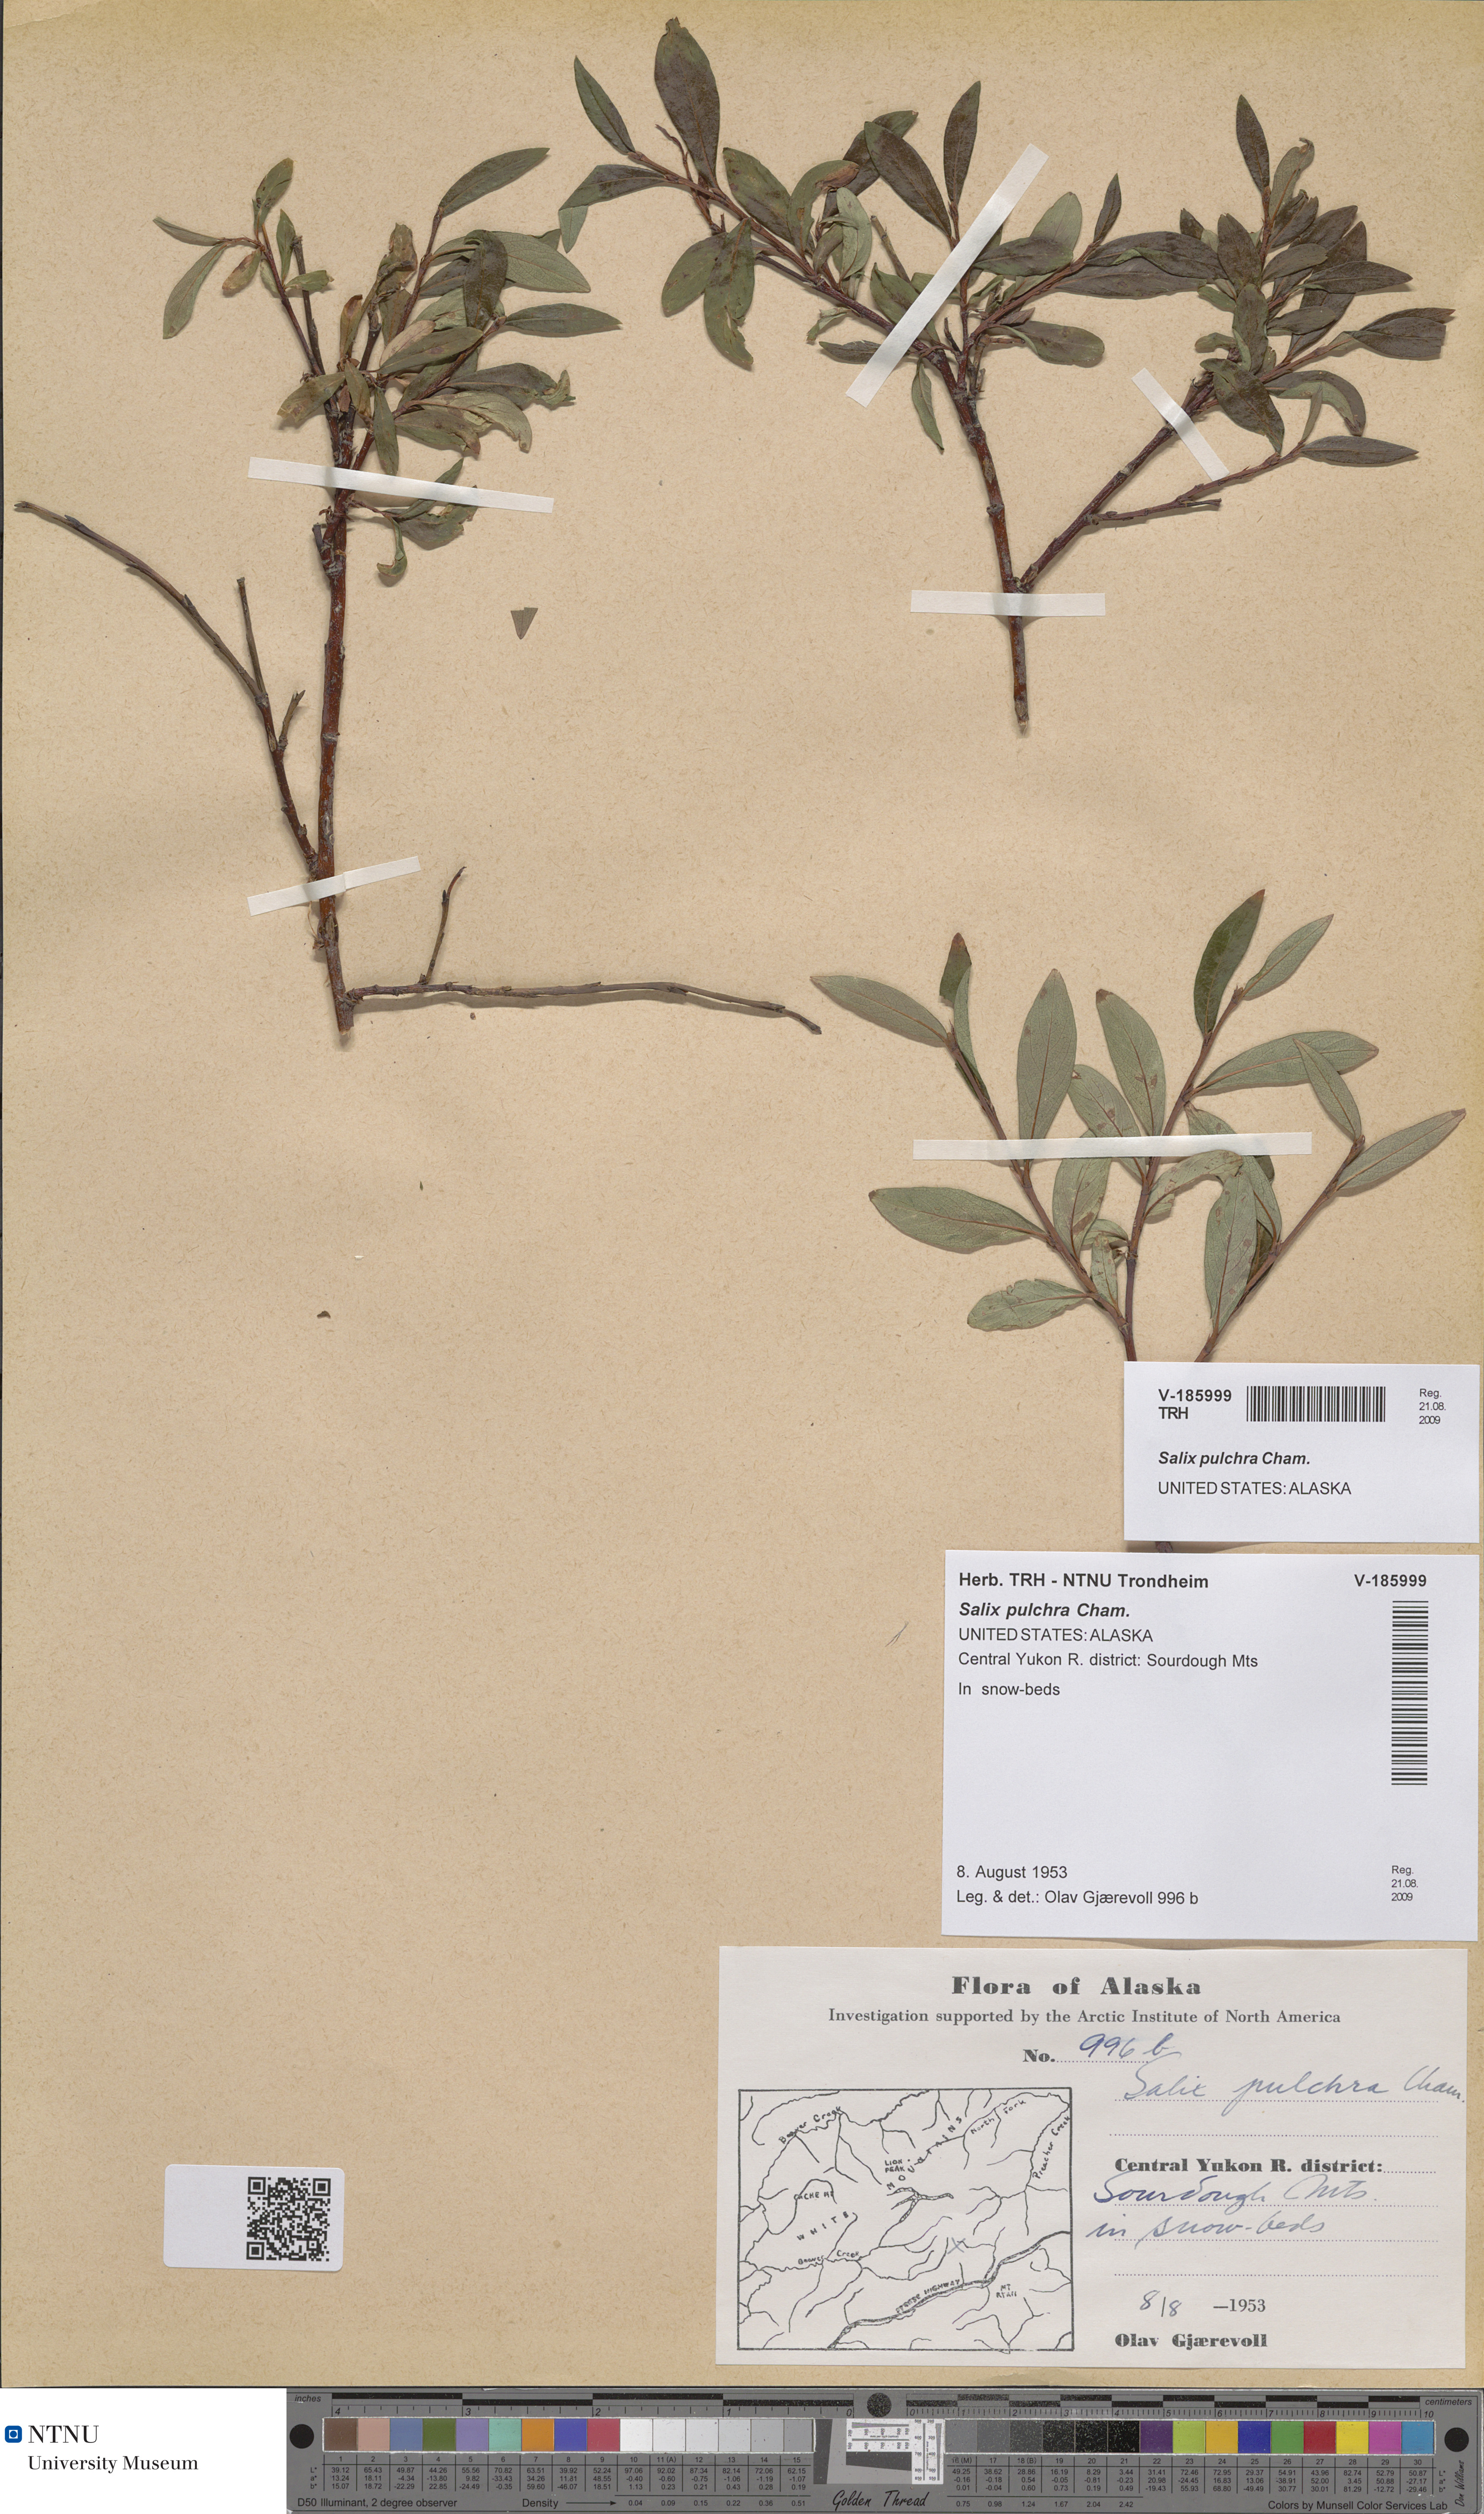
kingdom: Plantae
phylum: Tracheophyta
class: Magnoliopsida
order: Malpighiales
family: Salicaceae
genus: Salix
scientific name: Salix pulchra
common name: Diamond-leaved willow
